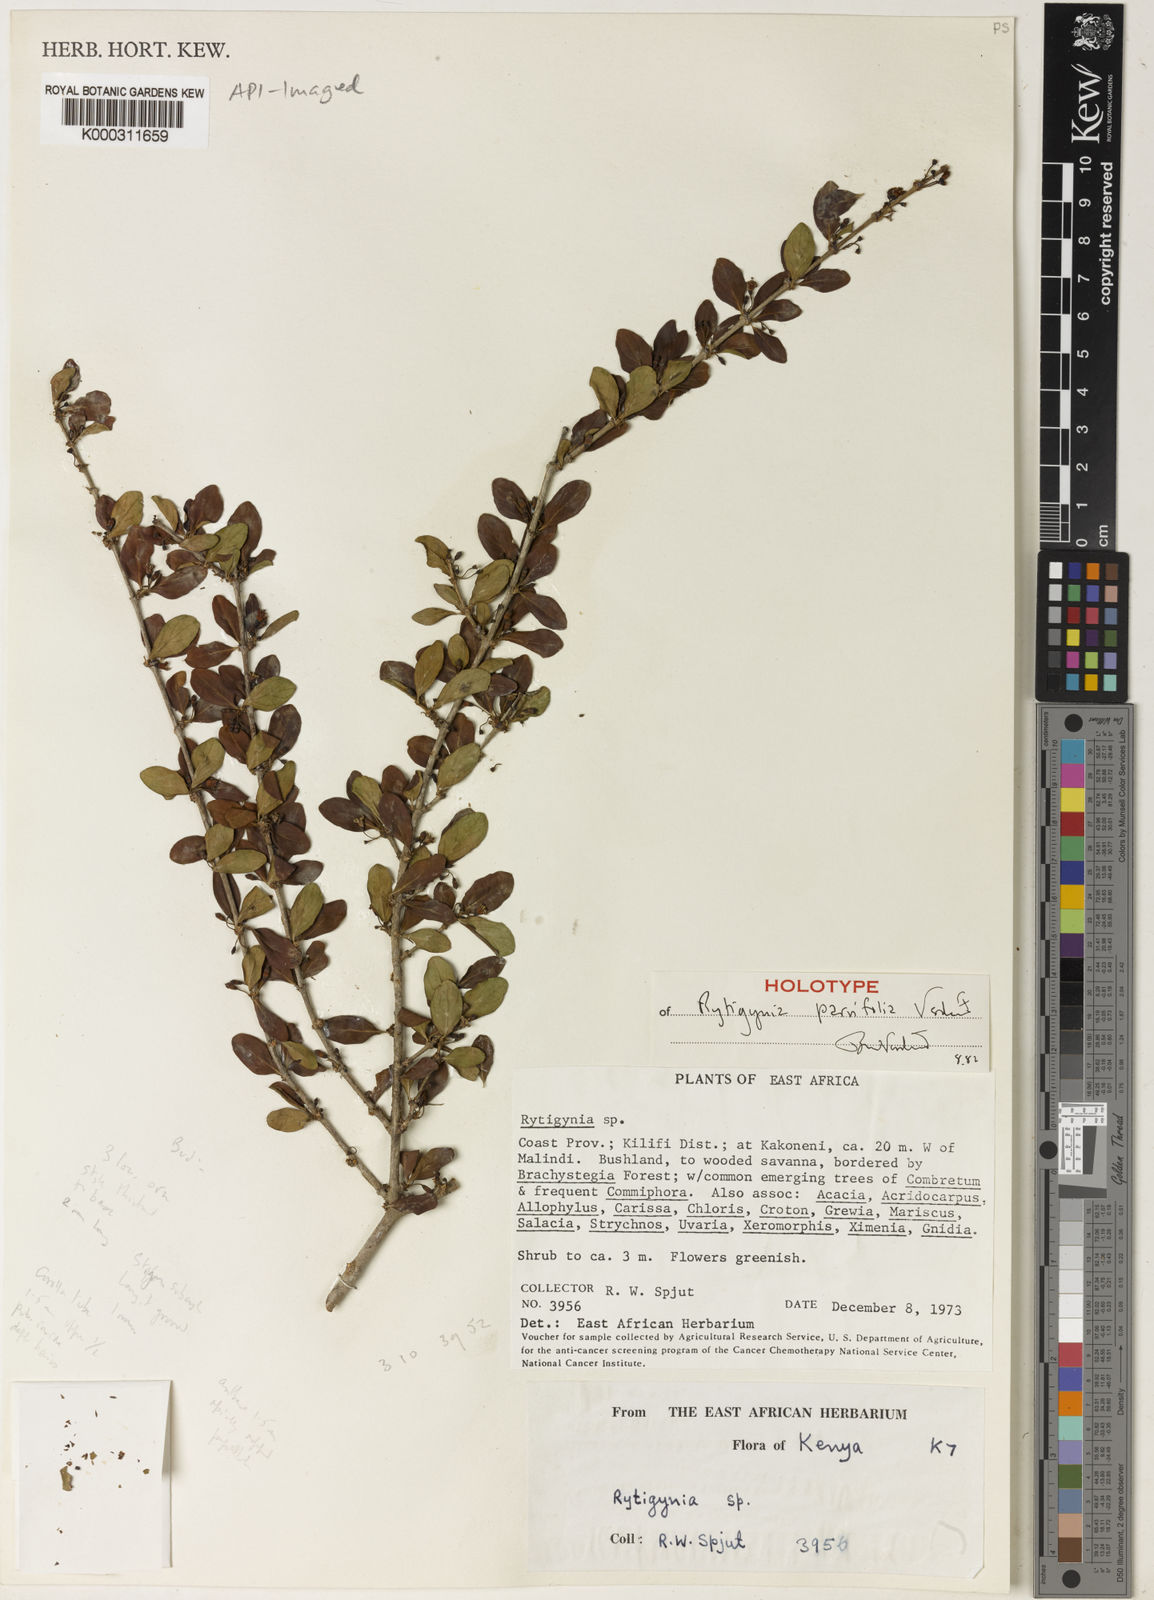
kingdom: Plantae
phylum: Tracheophyta
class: Magnoliopsida
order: Gentianales
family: Rubiaceae
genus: Rytigynia
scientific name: Rytigynia parvifolia
